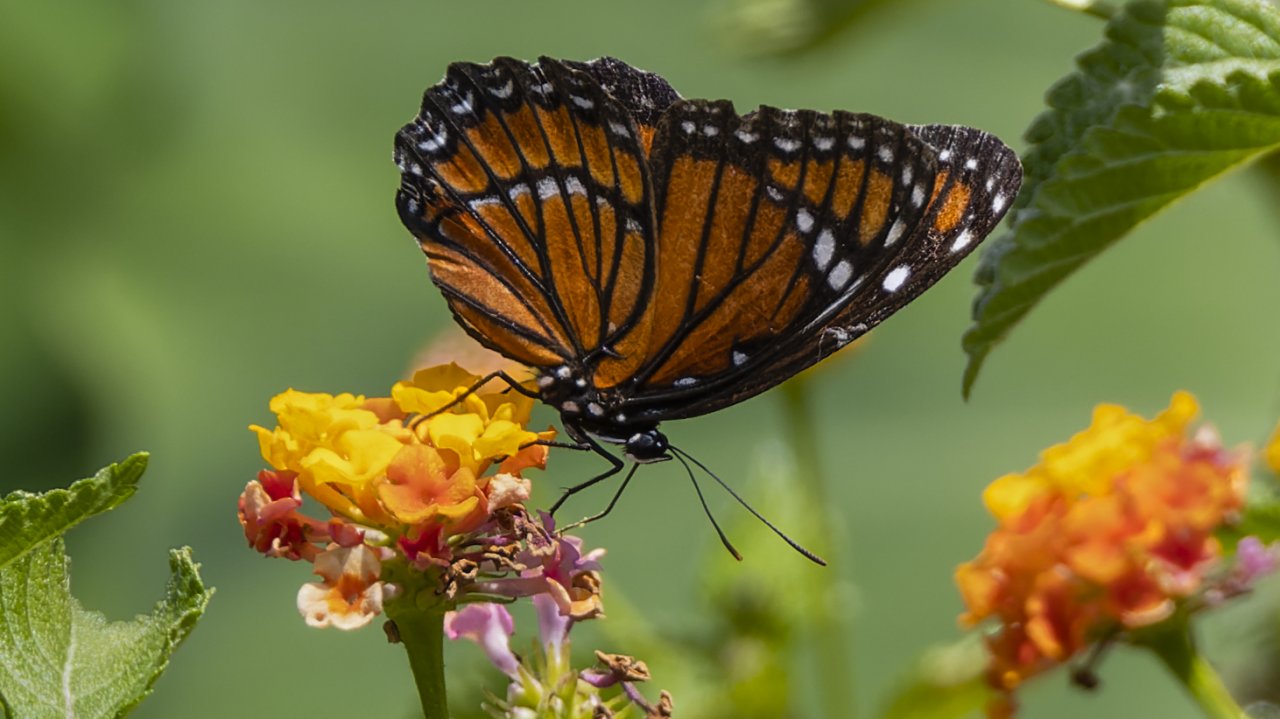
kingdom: Animalia
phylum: Arthropoda
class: Insecta
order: Lepidoptera
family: Nymphalidae
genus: Limenitis
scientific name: Limenitis archippus
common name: Viceroy
